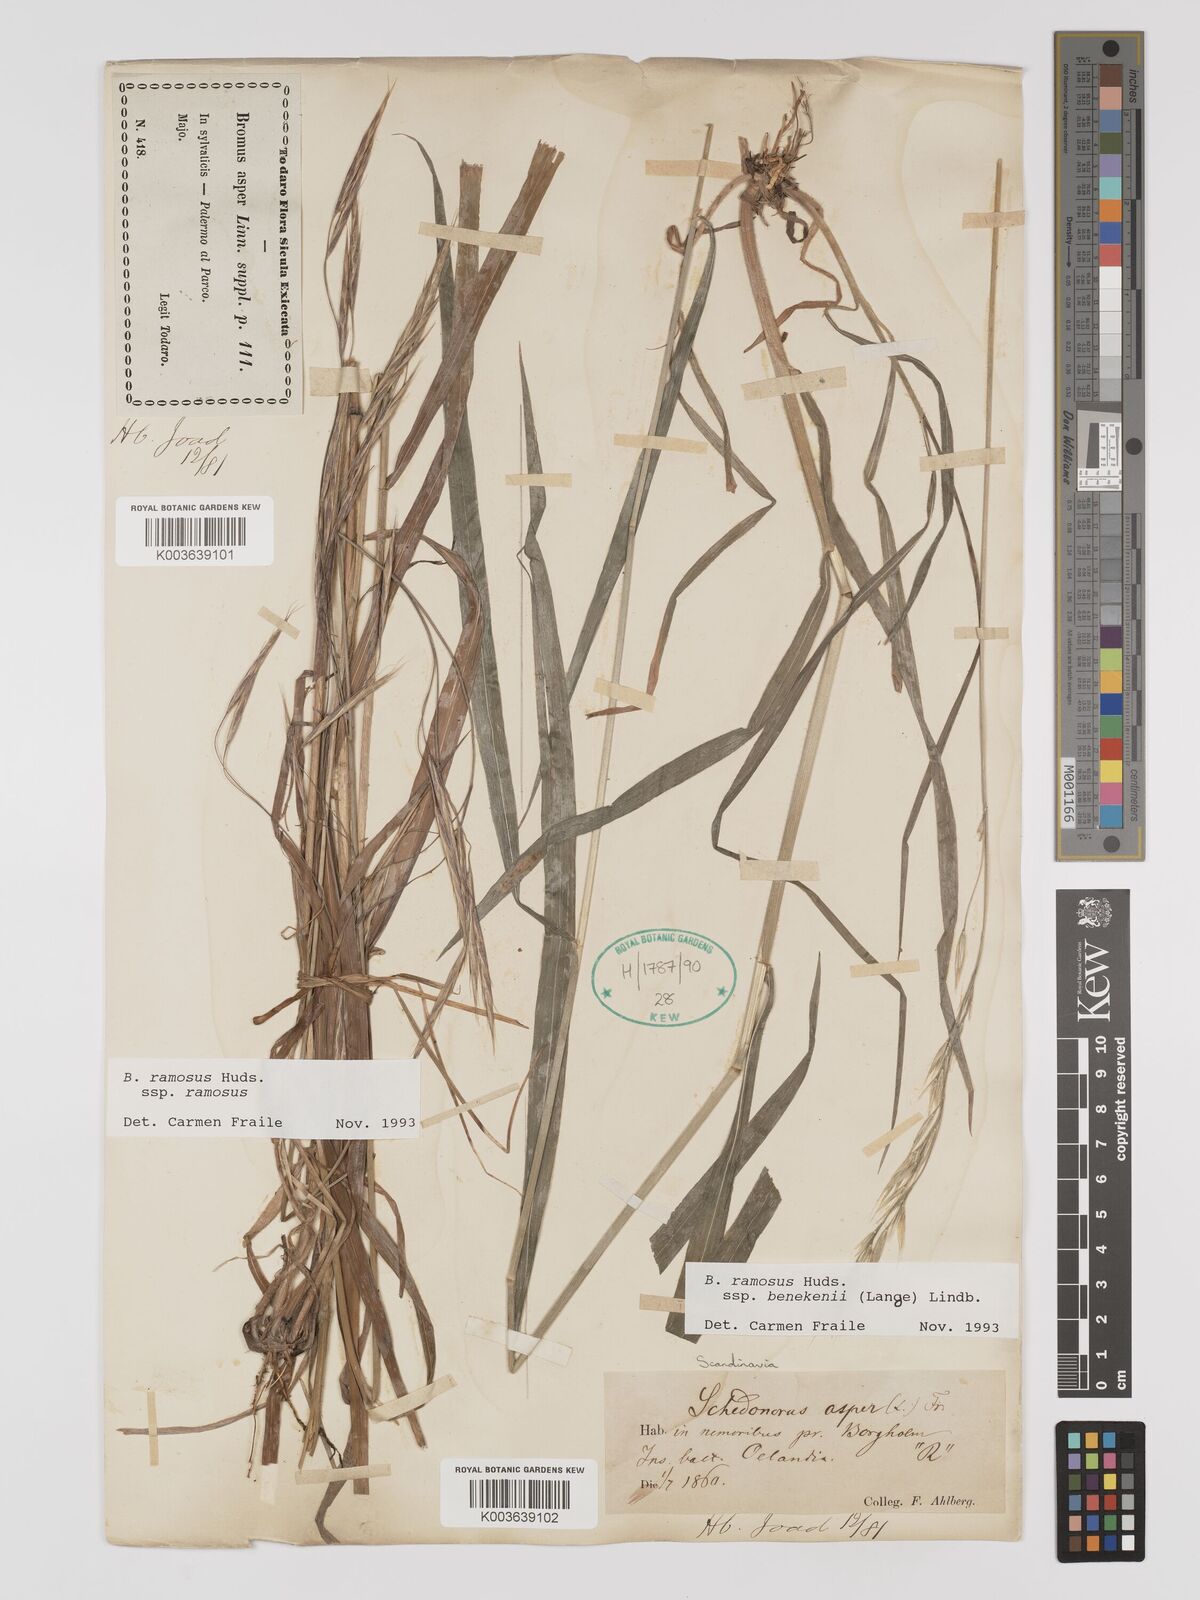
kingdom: Plantae
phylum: Tracheophyta
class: Liliopsida
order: Poales
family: Poaceae
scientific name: Poaceae
